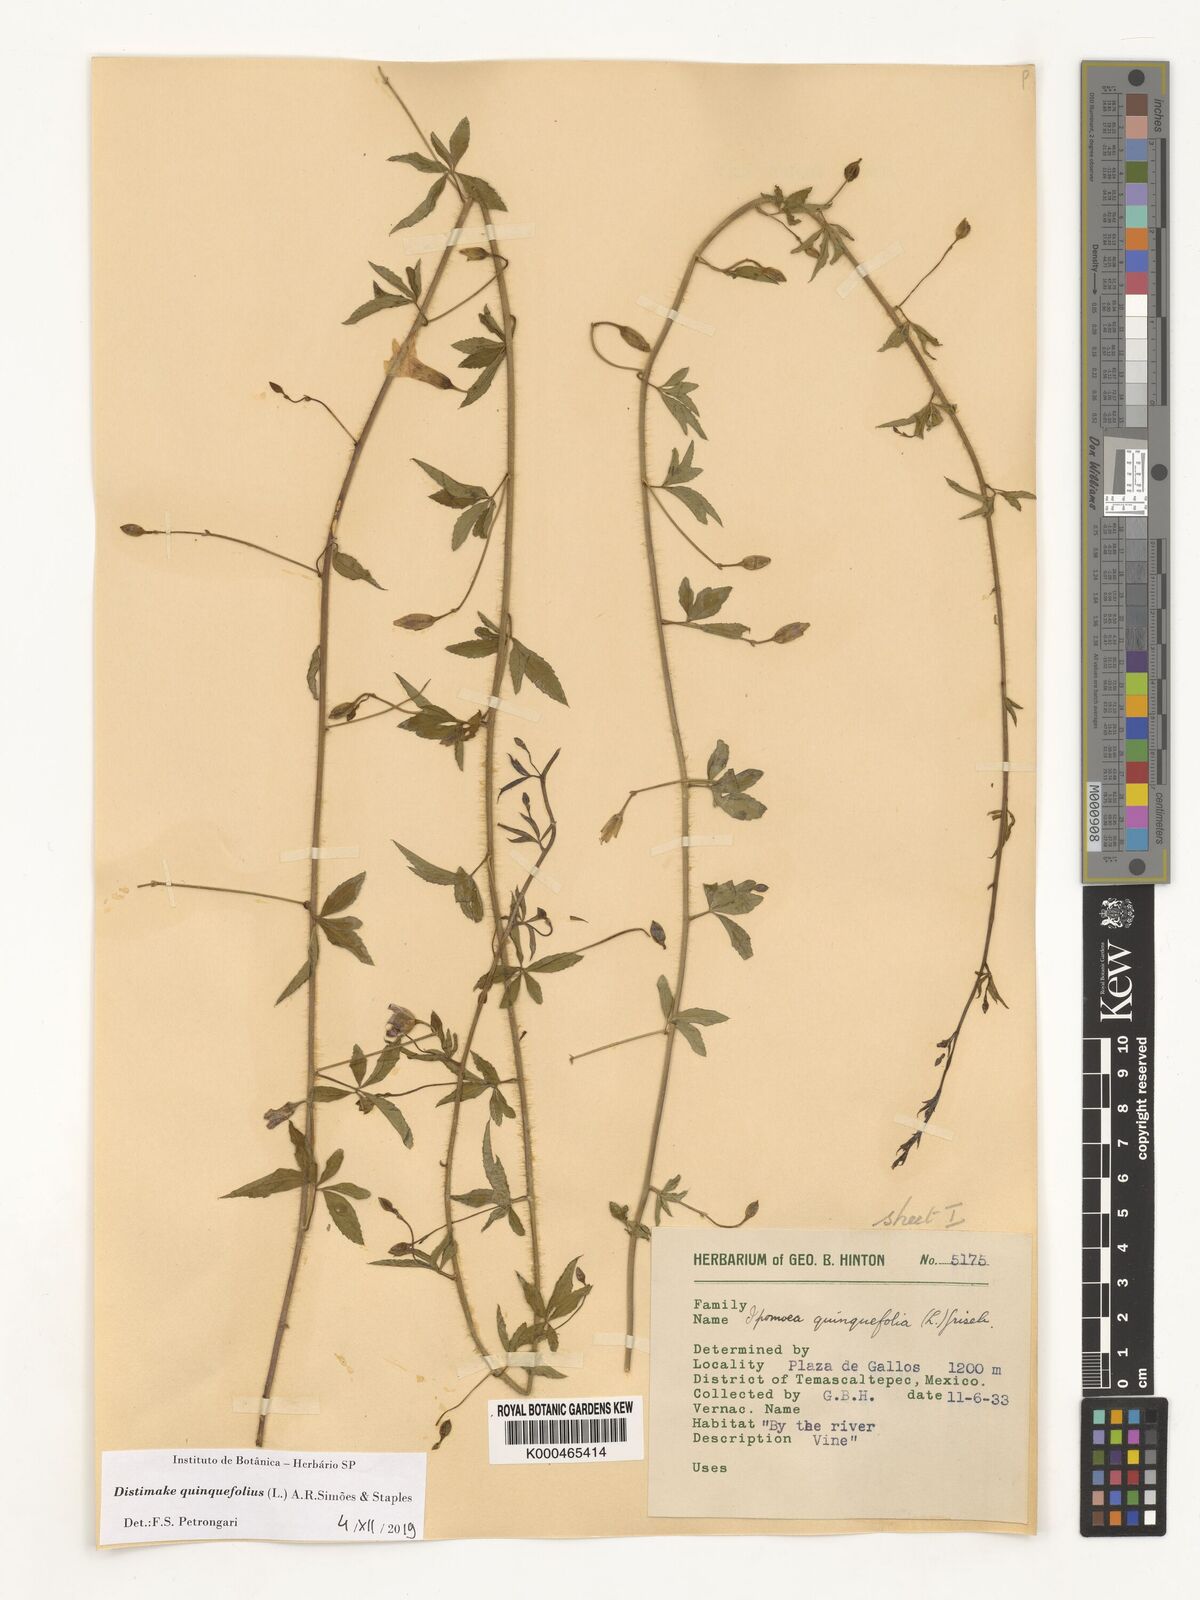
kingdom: Plantae
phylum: Tracheophyta
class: Magnoliopsida
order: Solanales
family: Convolvulaceae
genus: Distimake
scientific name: Distimake quinquefolius
